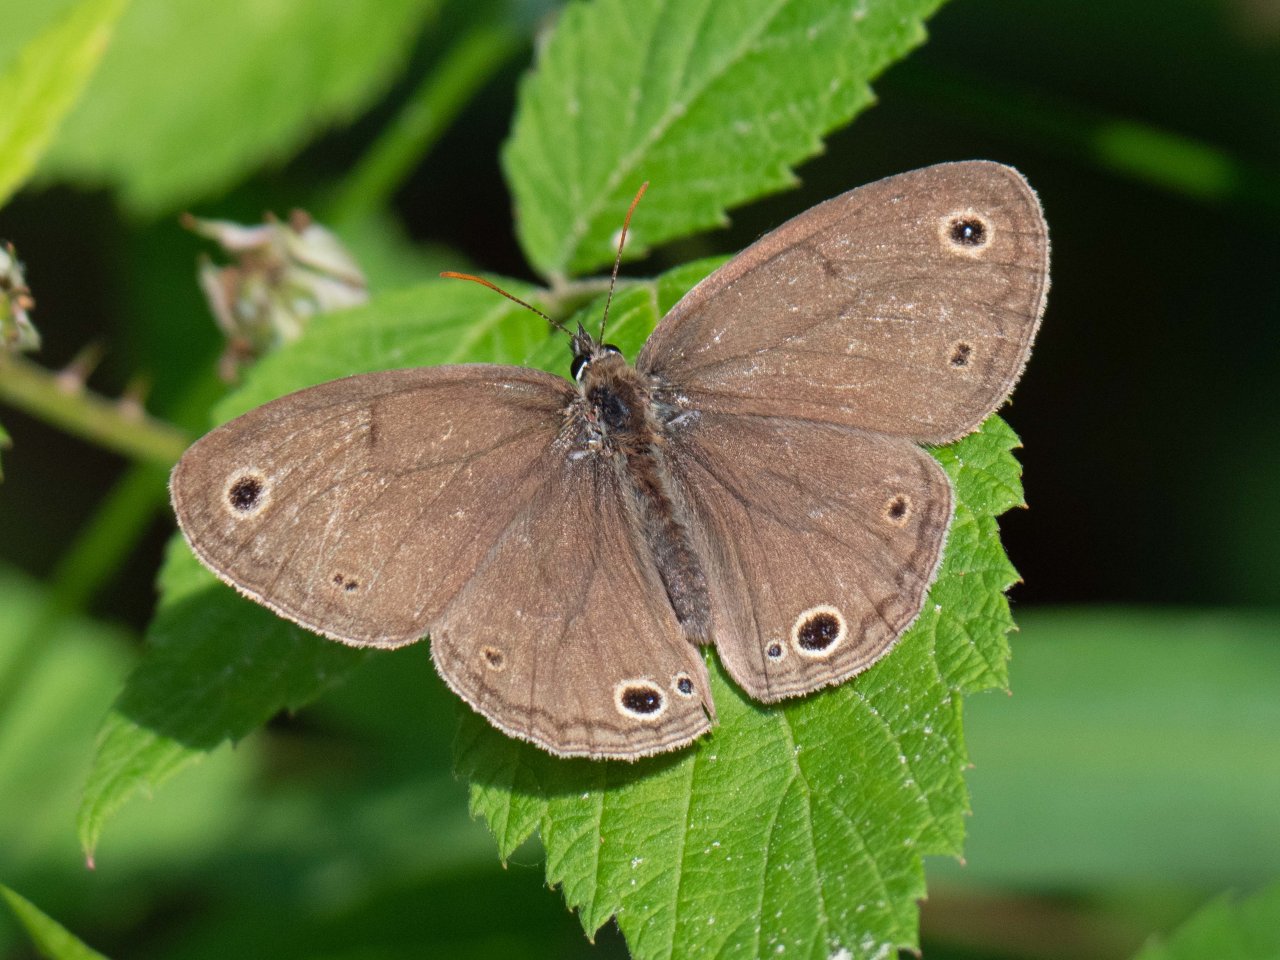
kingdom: Animalia
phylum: Arthropoda
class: Insecta
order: Lepidoptera
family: Nymphalidae
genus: Euptychia
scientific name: Euptychia cymela
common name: Little Wood Satyr
